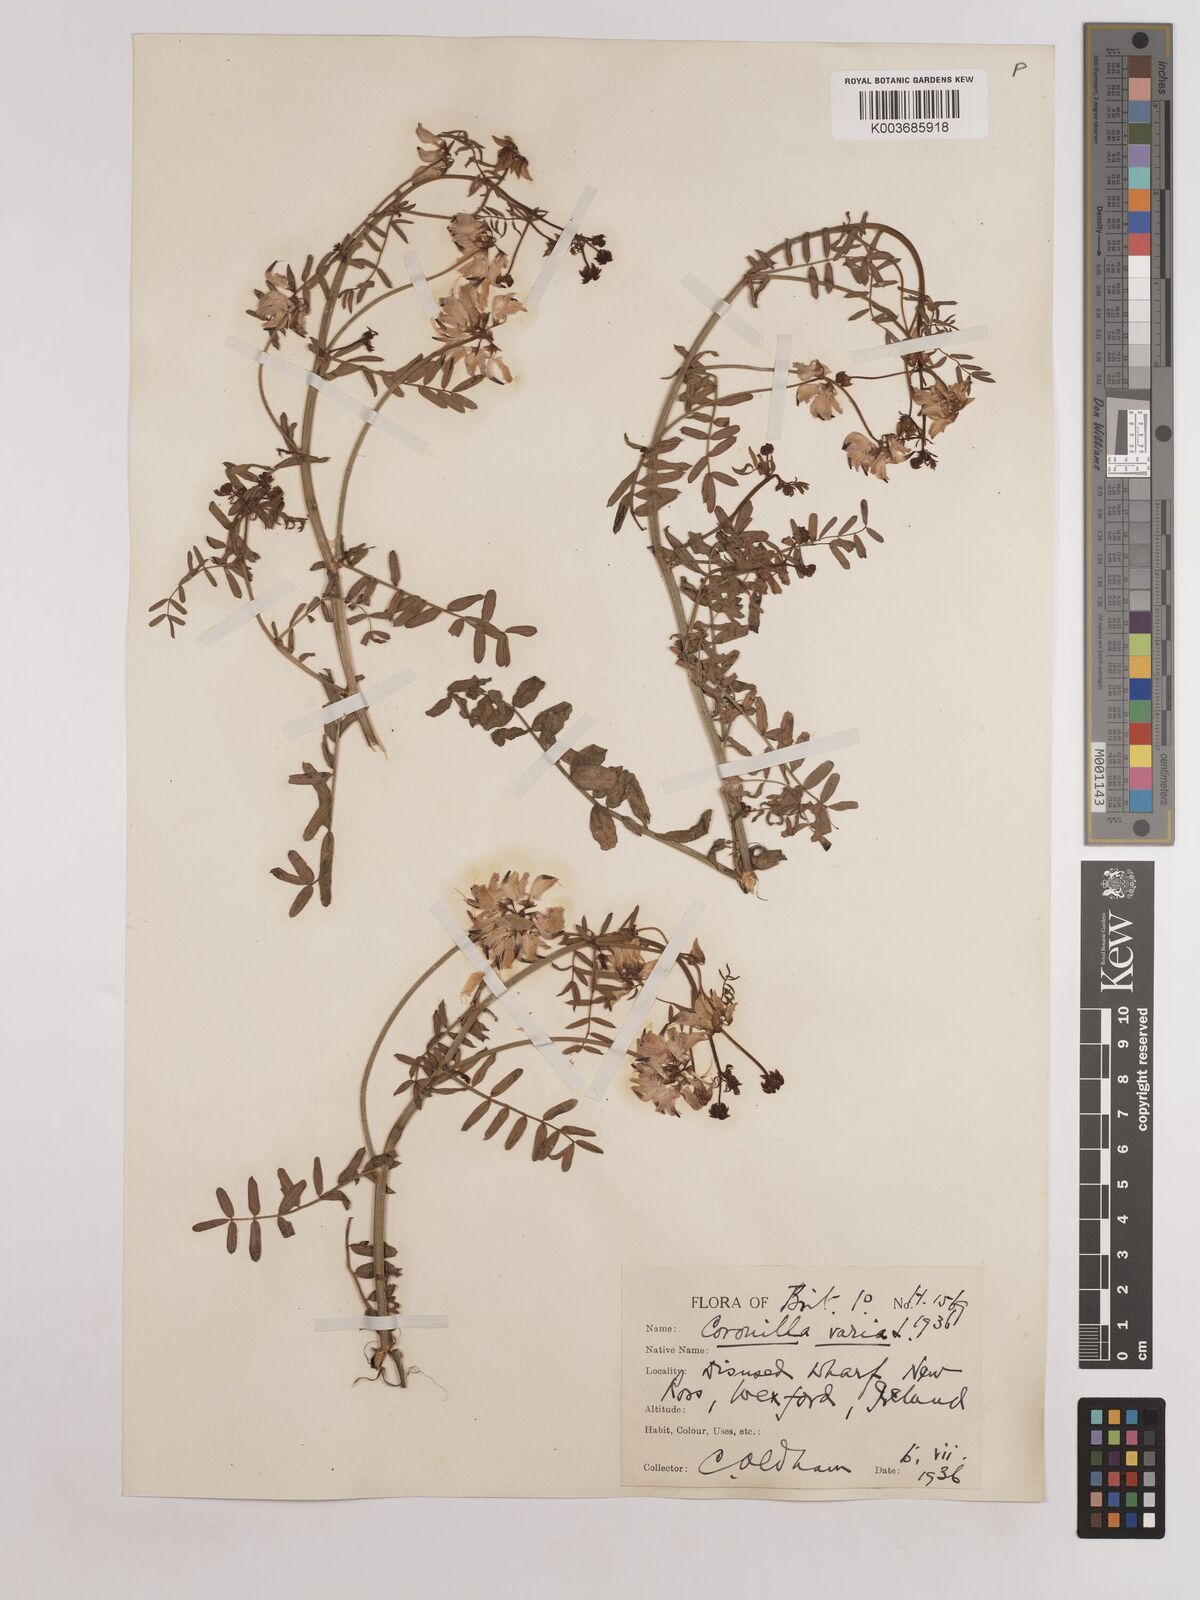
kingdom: Plantae
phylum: Tracheophyta
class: Magnoliopsida
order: Fabales
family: Fabaceae
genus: Coronilla
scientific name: Coronilla varia
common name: Crownvetch
